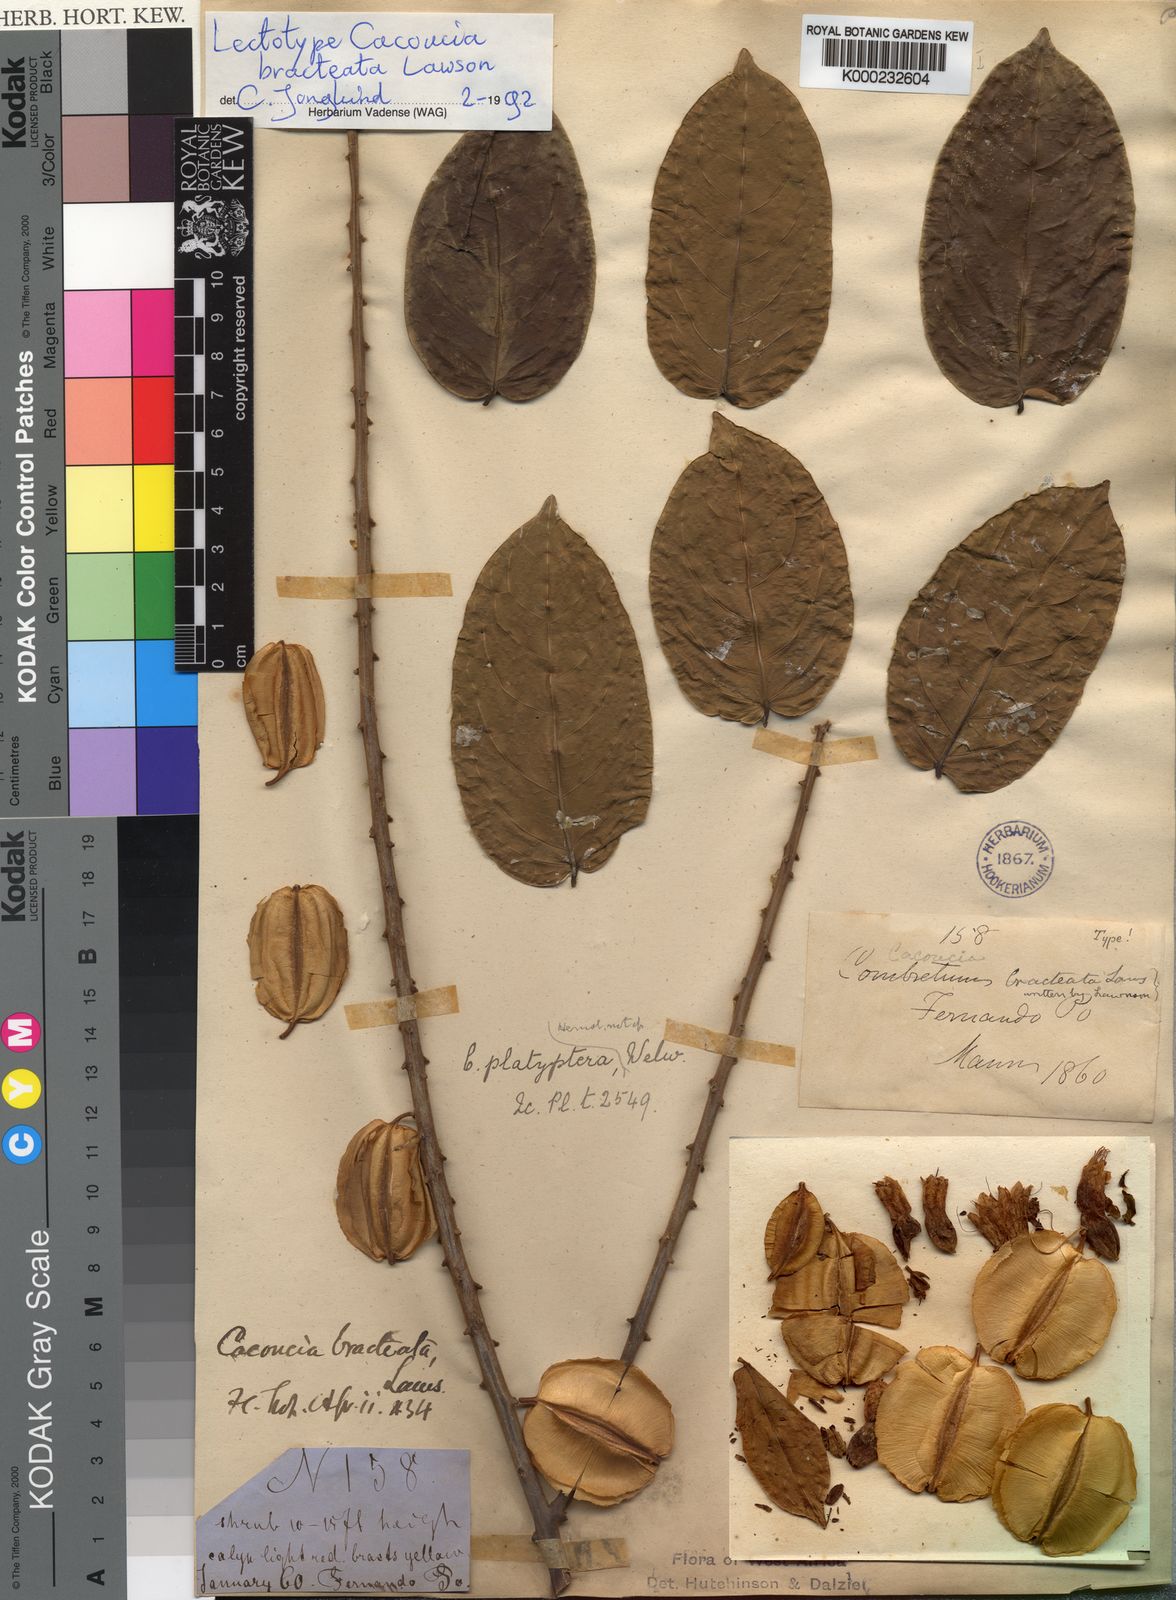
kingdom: Plantae
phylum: Tracheophyta
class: Magnoliopsida
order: Myrtales
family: Combretaceae
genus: Combretum
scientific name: Combretum bracteatum
